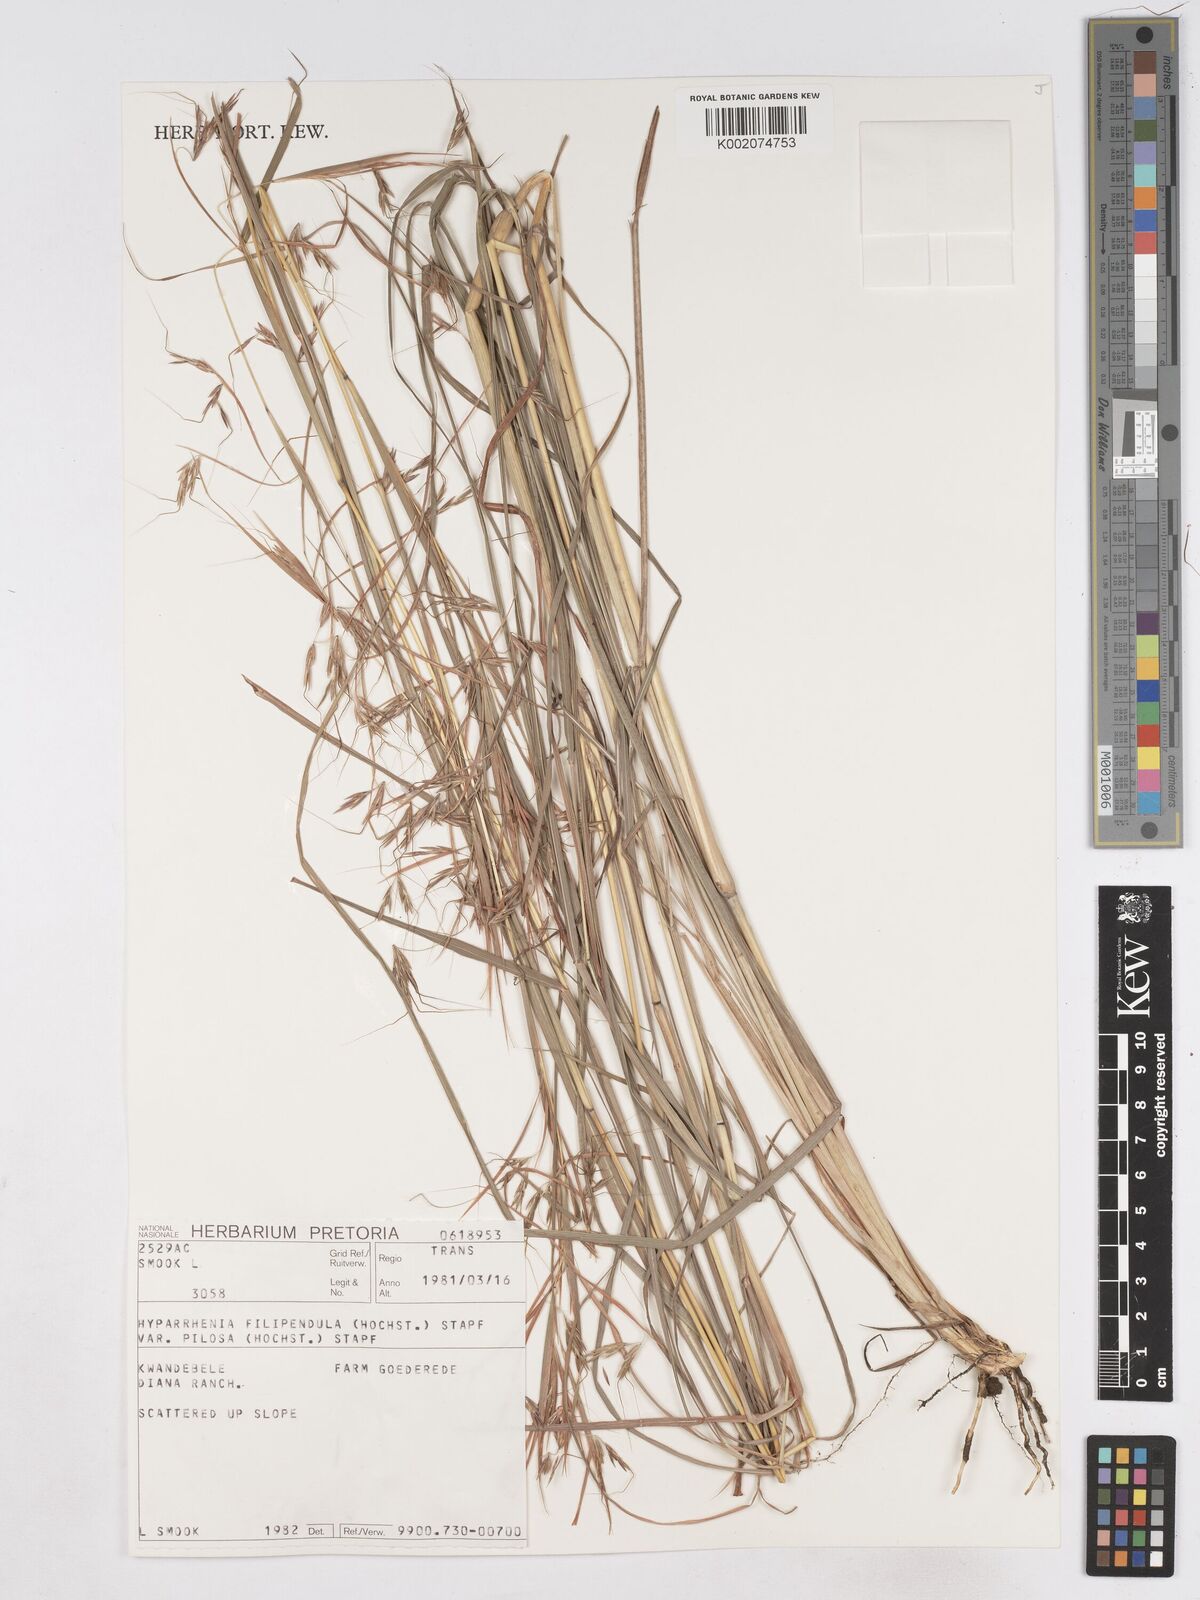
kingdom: Plantae
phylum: Tracheophyta
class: Liliopsida
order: Poales
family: Poaceae
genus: Hyparrhenia
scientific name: Hyparrhenia filipendula
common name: Tambookie grass
